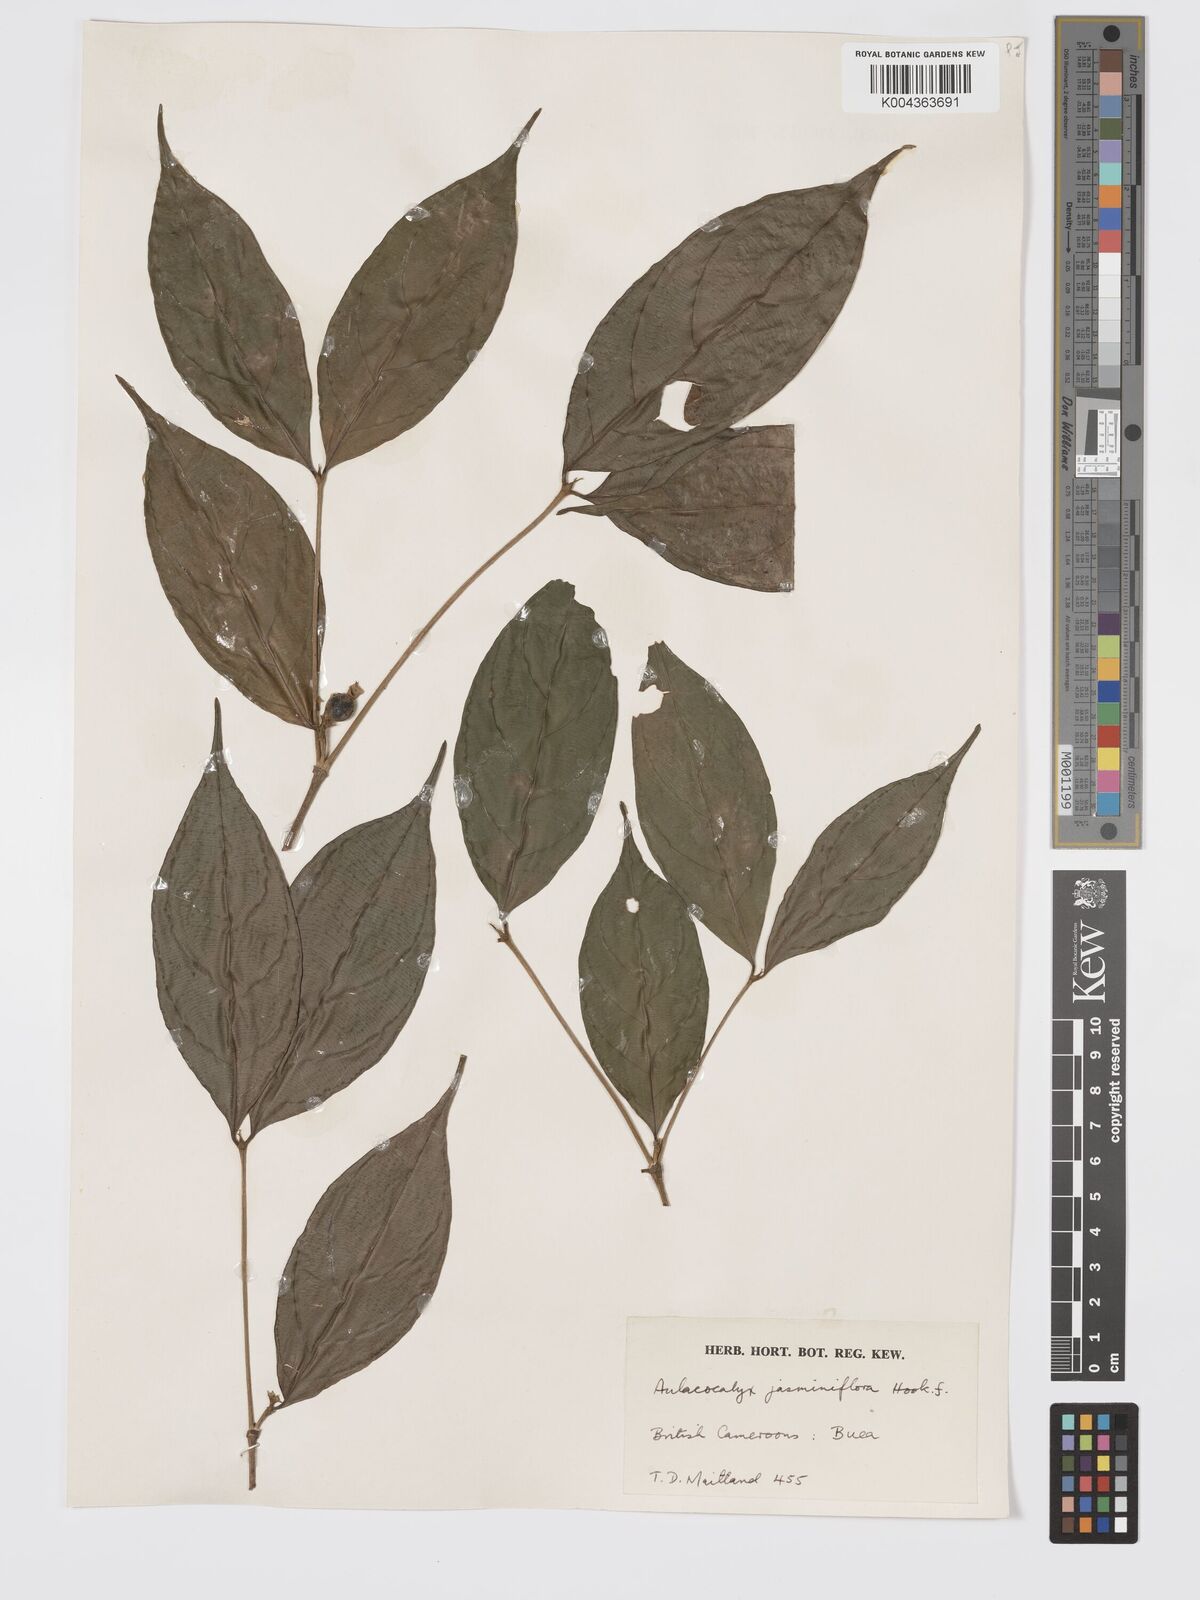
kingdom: Plantae
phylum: Tracheophyta
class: Magnoliopsida
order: Gentianales
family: Rubiaceae
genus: Aulacocalyx
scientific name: Aulacocalyx jasminiflora
